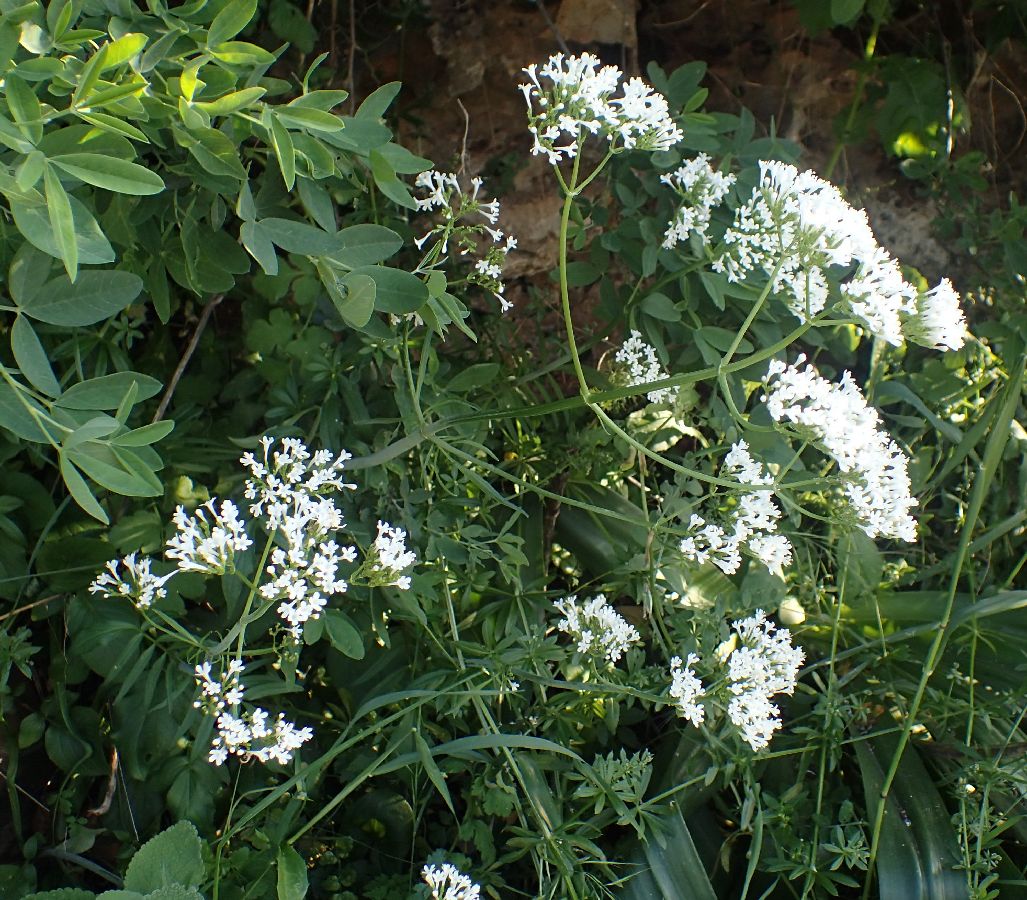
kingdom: Plantae
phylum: Tracheophyta
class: Magnoliopsida
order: Dipsacales
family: Caprifoliaceae
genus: Valeriana
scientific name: Valeriana dioscoridis
